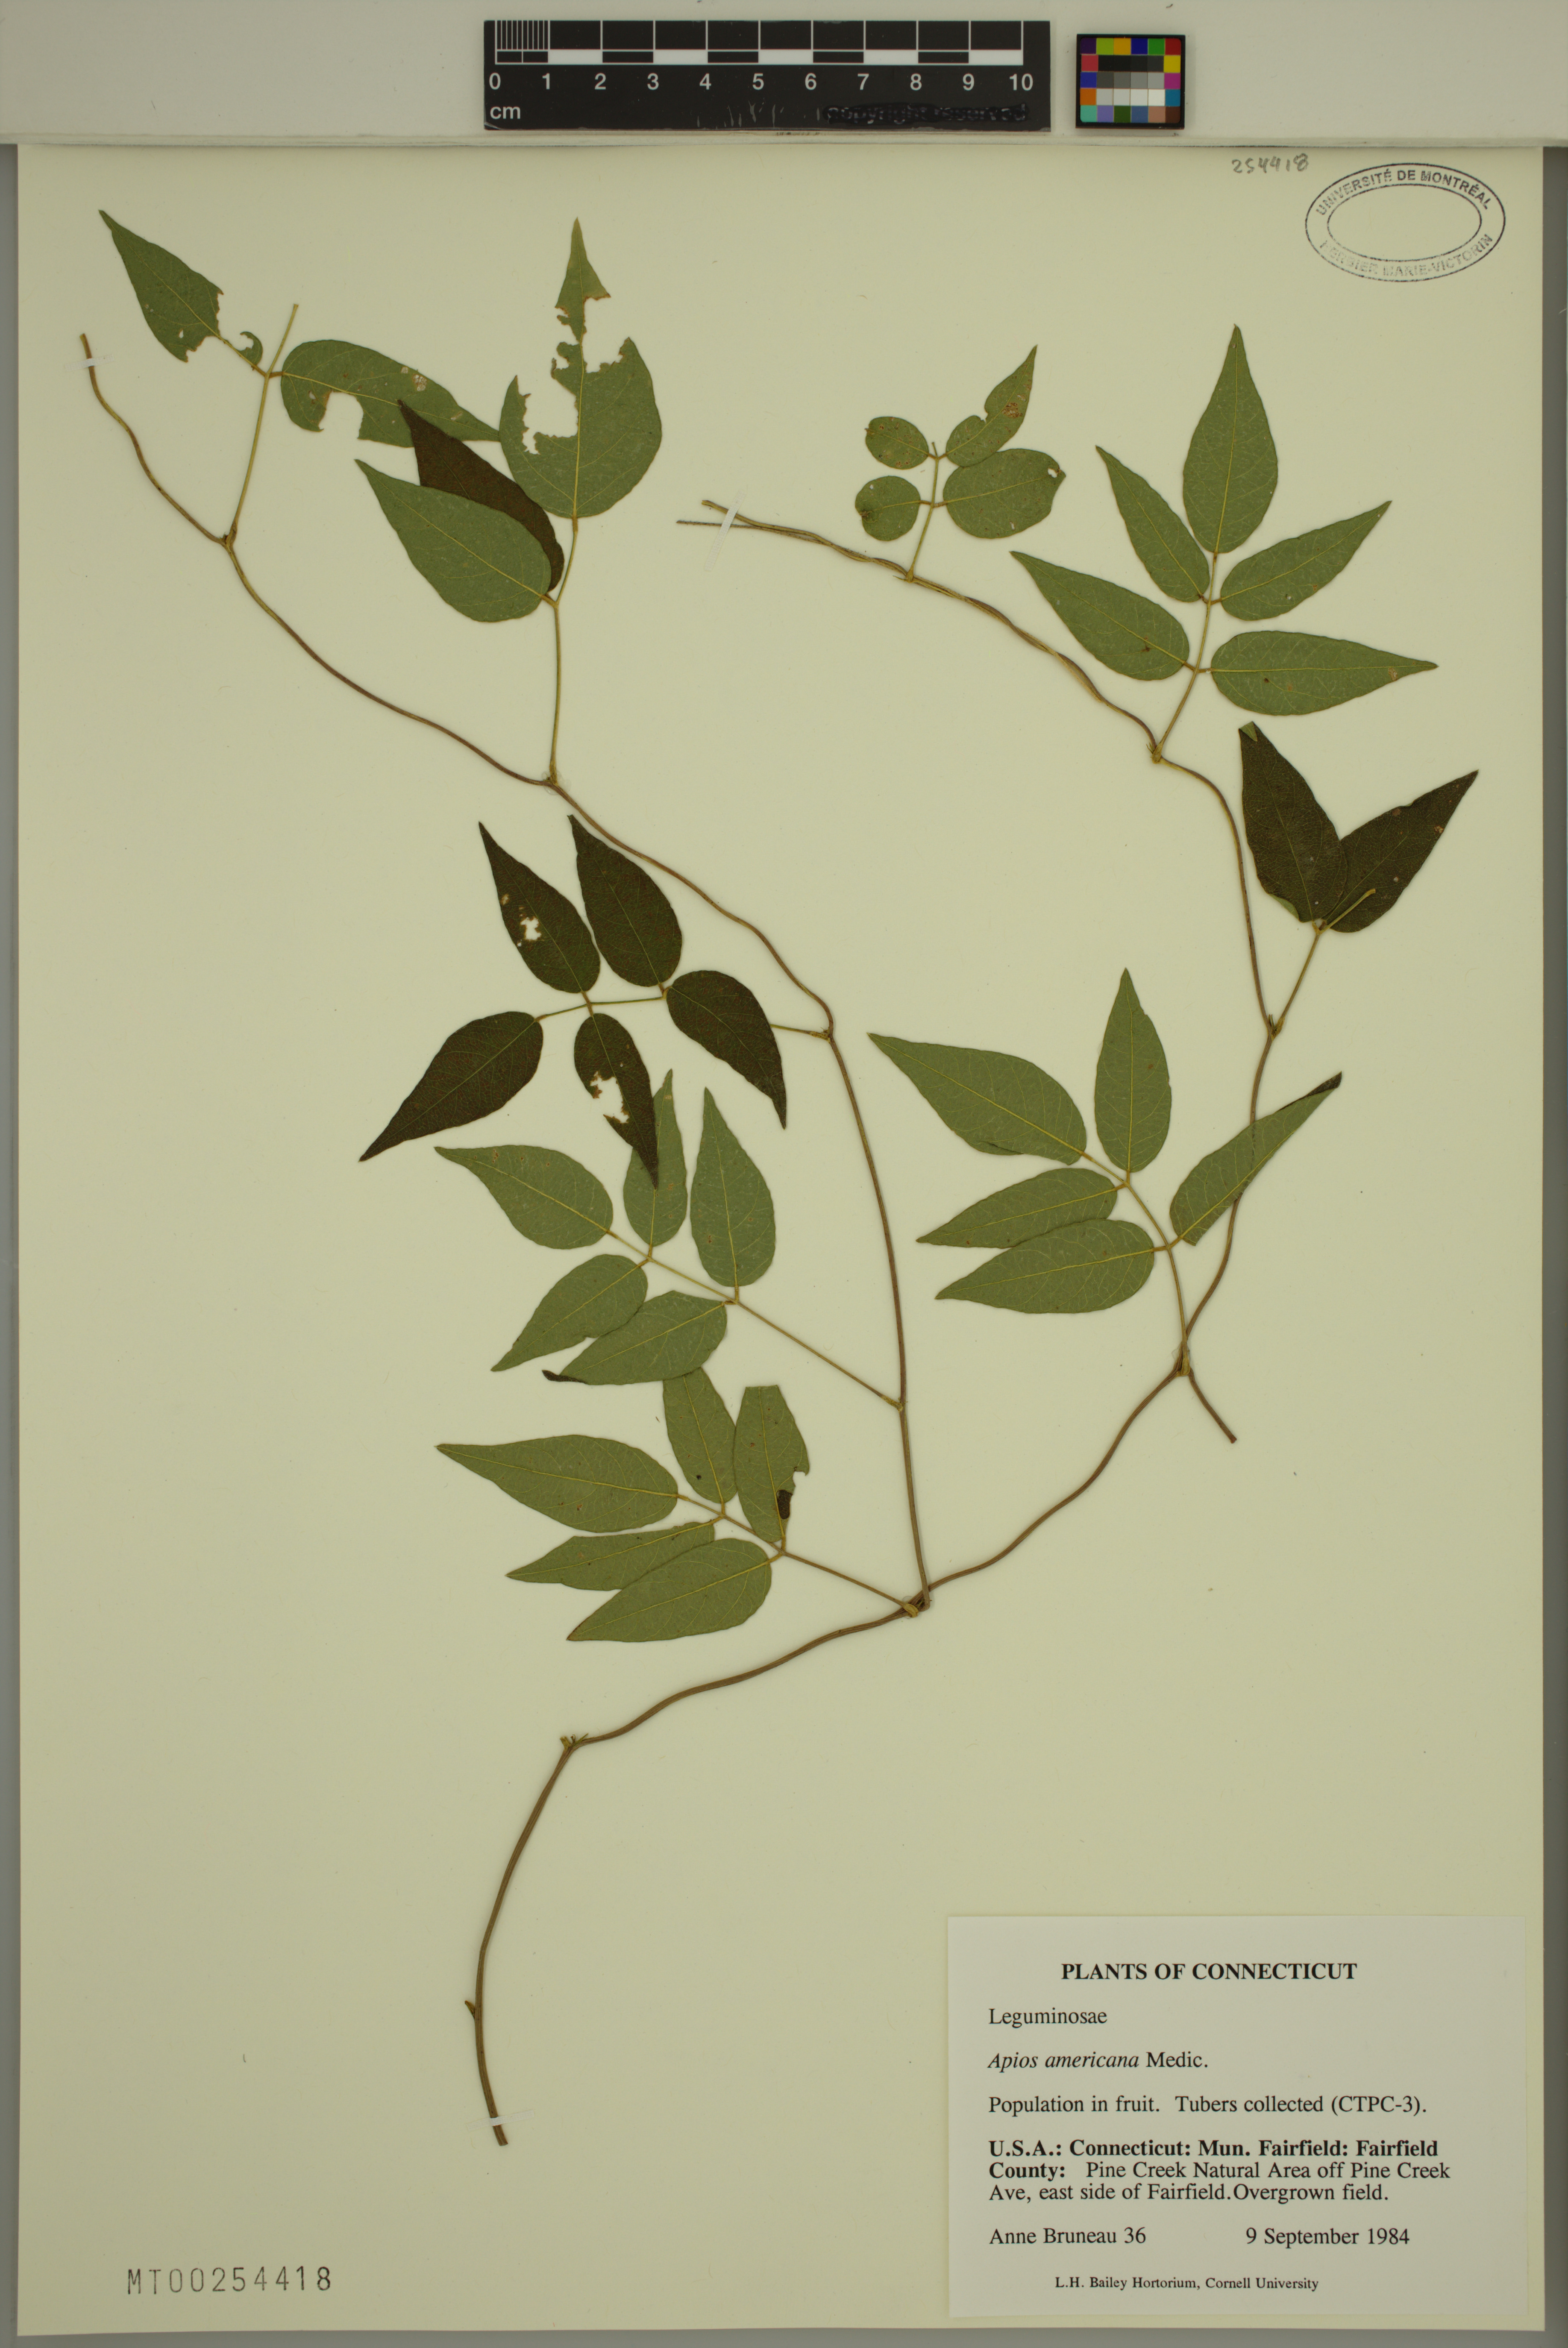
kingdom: Plantae
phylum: Tracheophyta
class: Magnoliopsida
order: Fabales
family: Fabaceae
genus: Apios
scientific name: Apios americana
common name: American potato-bean
